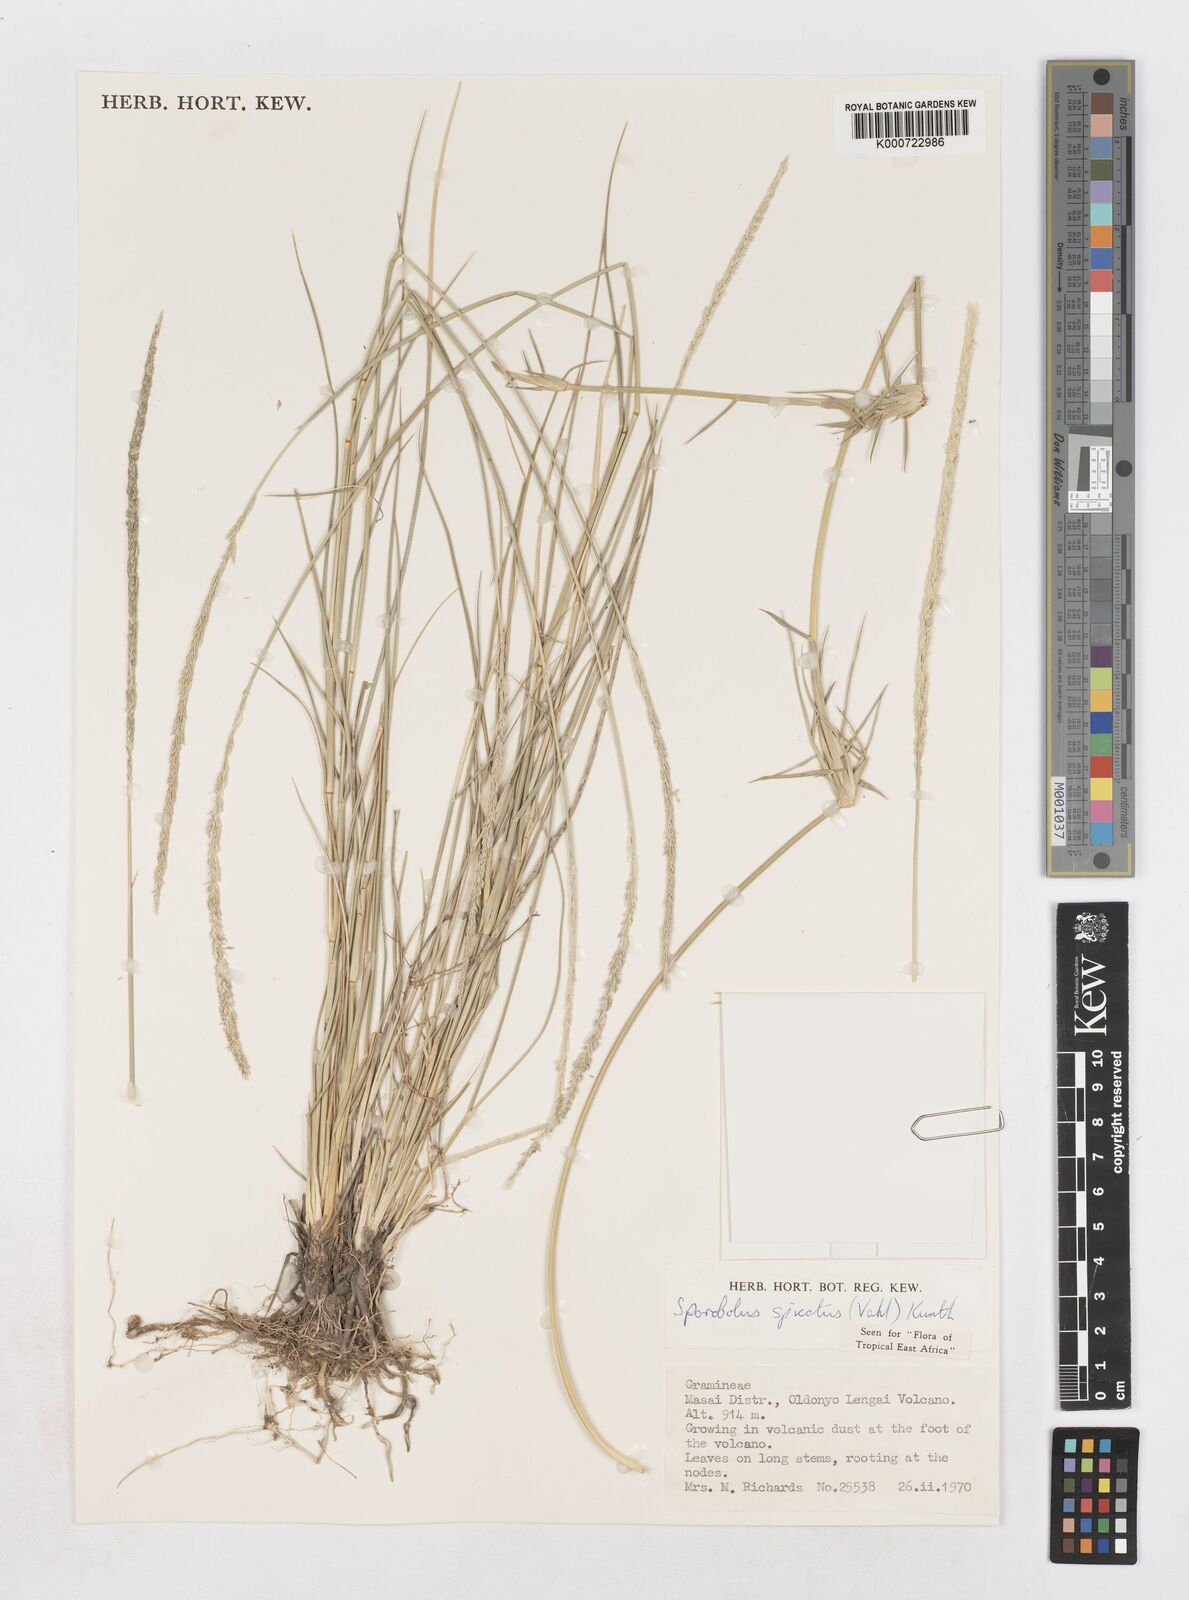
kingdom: Plantae
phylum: Tracheophyta
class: Liliopsida
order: Poales
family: Poaceae
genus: Sporobolus
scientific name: Sporobolus spicatus
